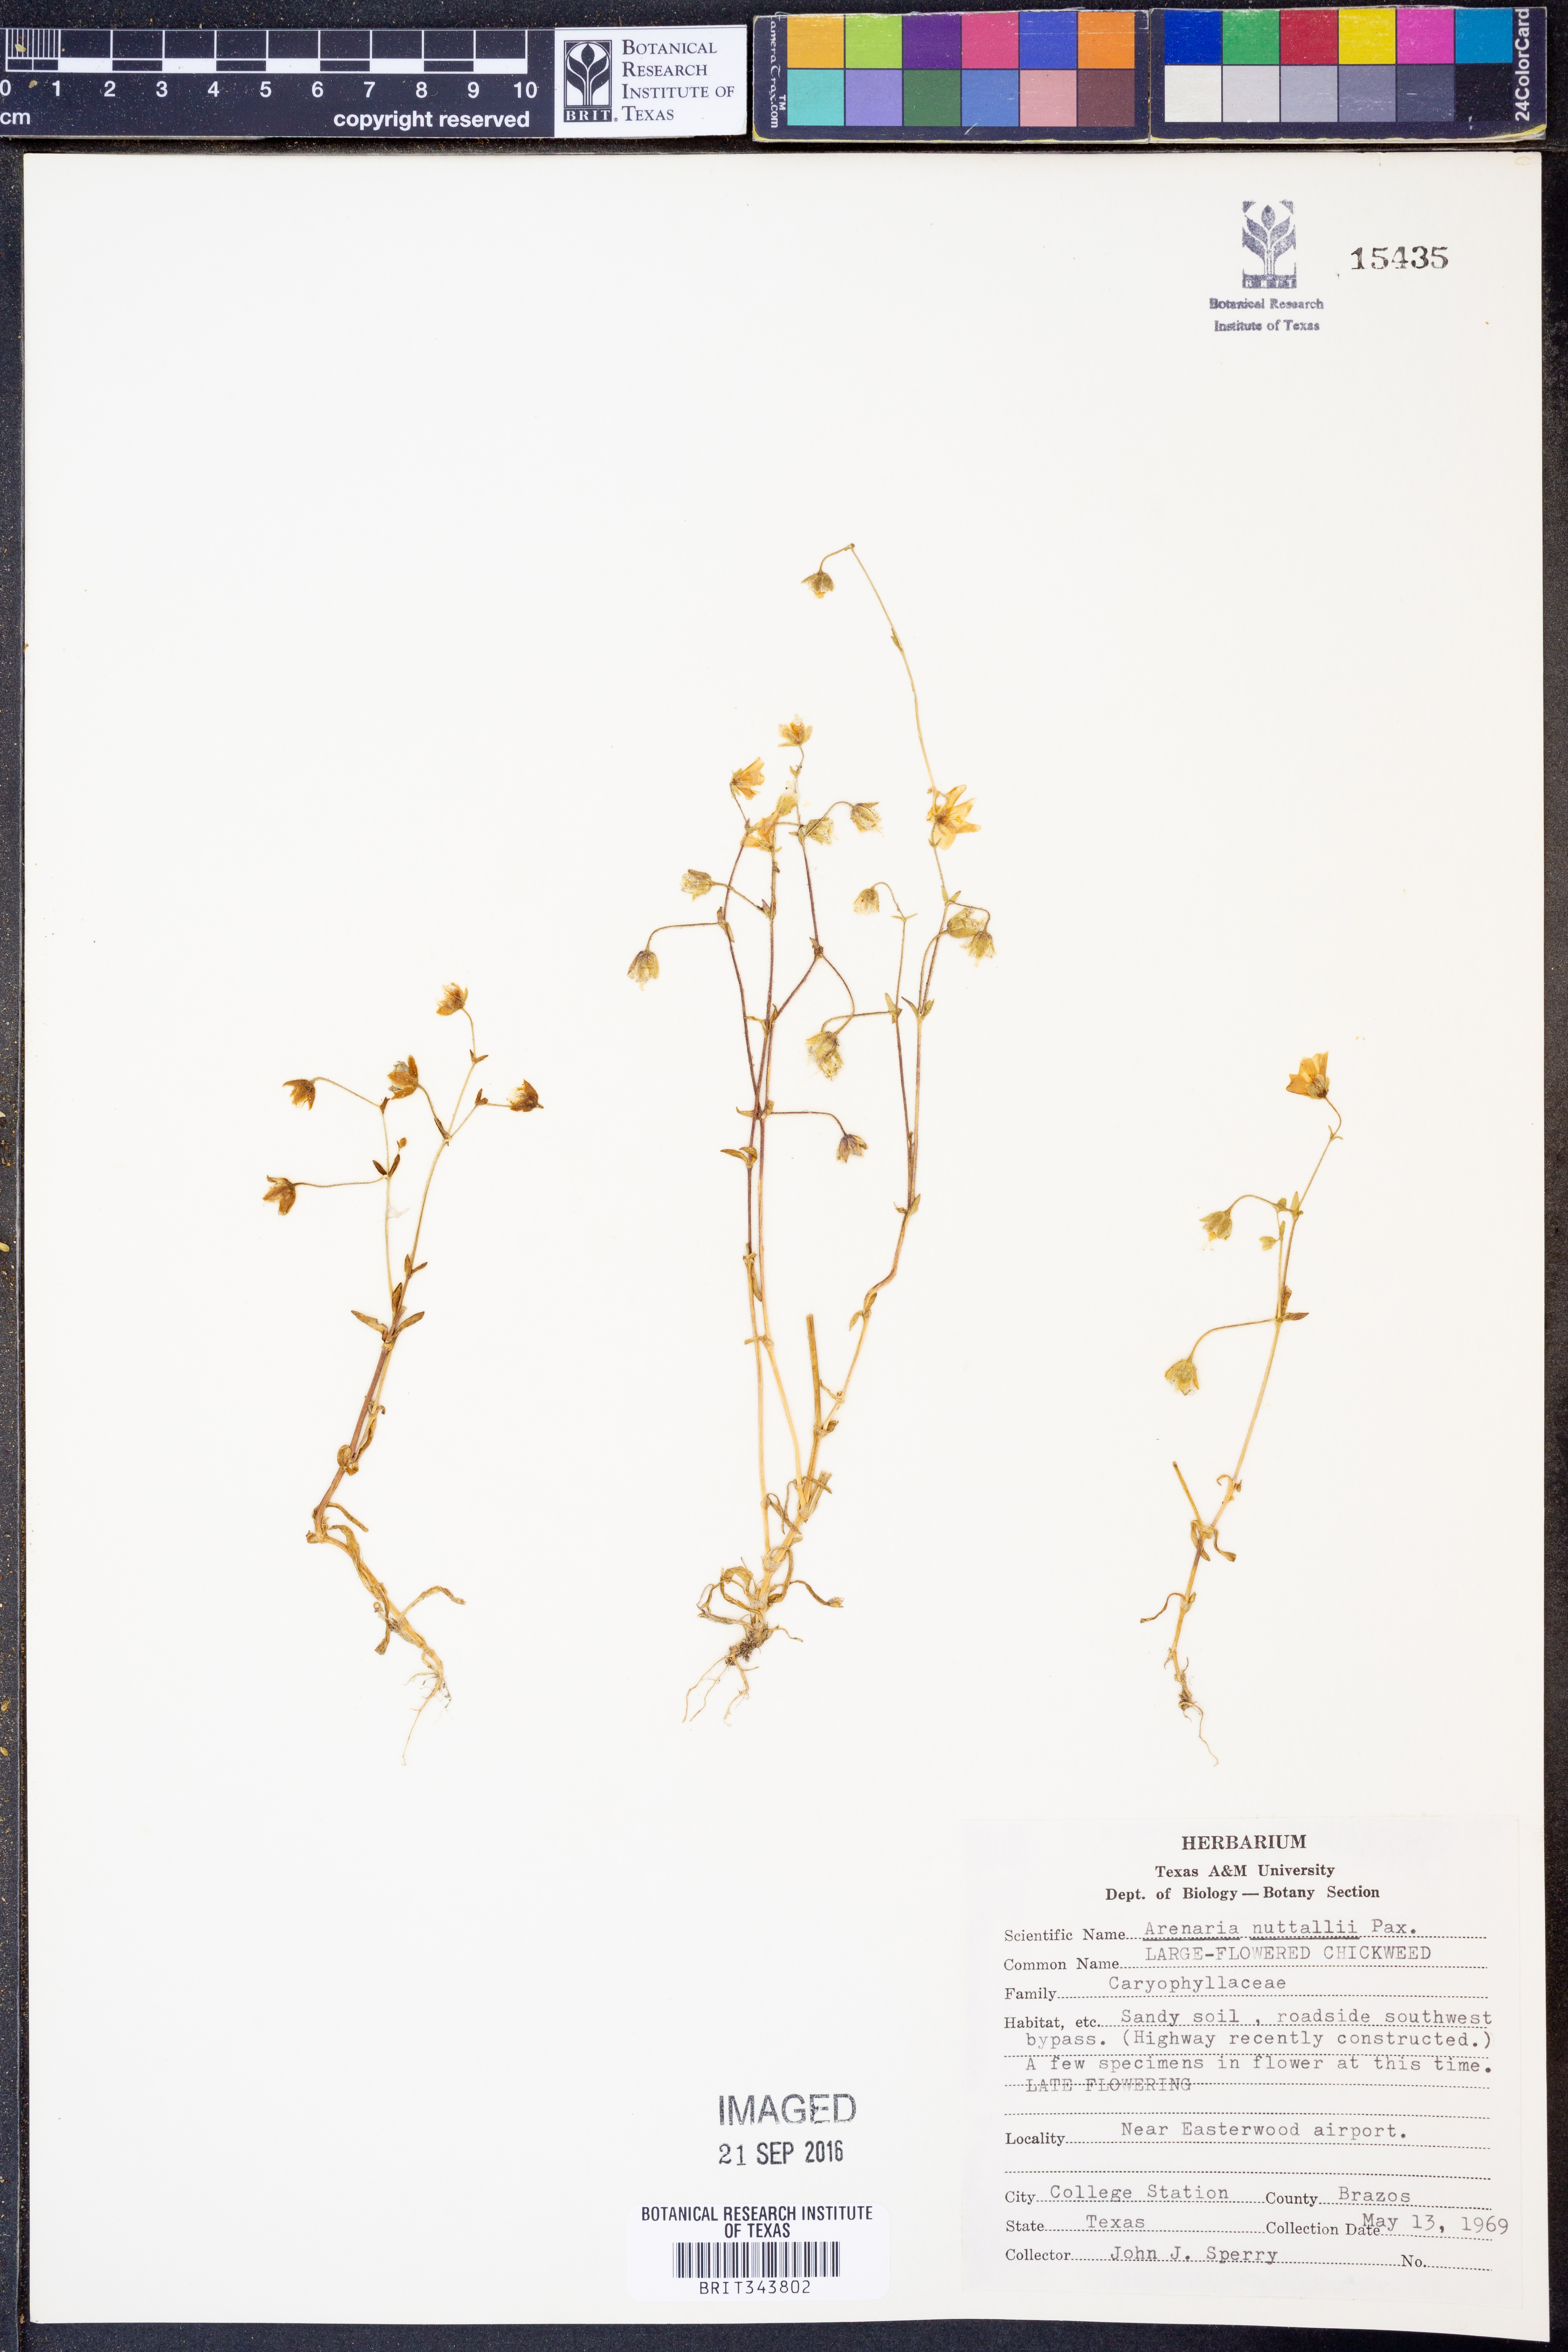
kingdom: Plantae
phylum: Tracheophyta
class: Magnoliopsida
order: Caryophyllales
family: Caryophyllaceae
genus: Sabulina
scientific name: Sabulina nuttallii
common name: Nuttall's stitchwort
